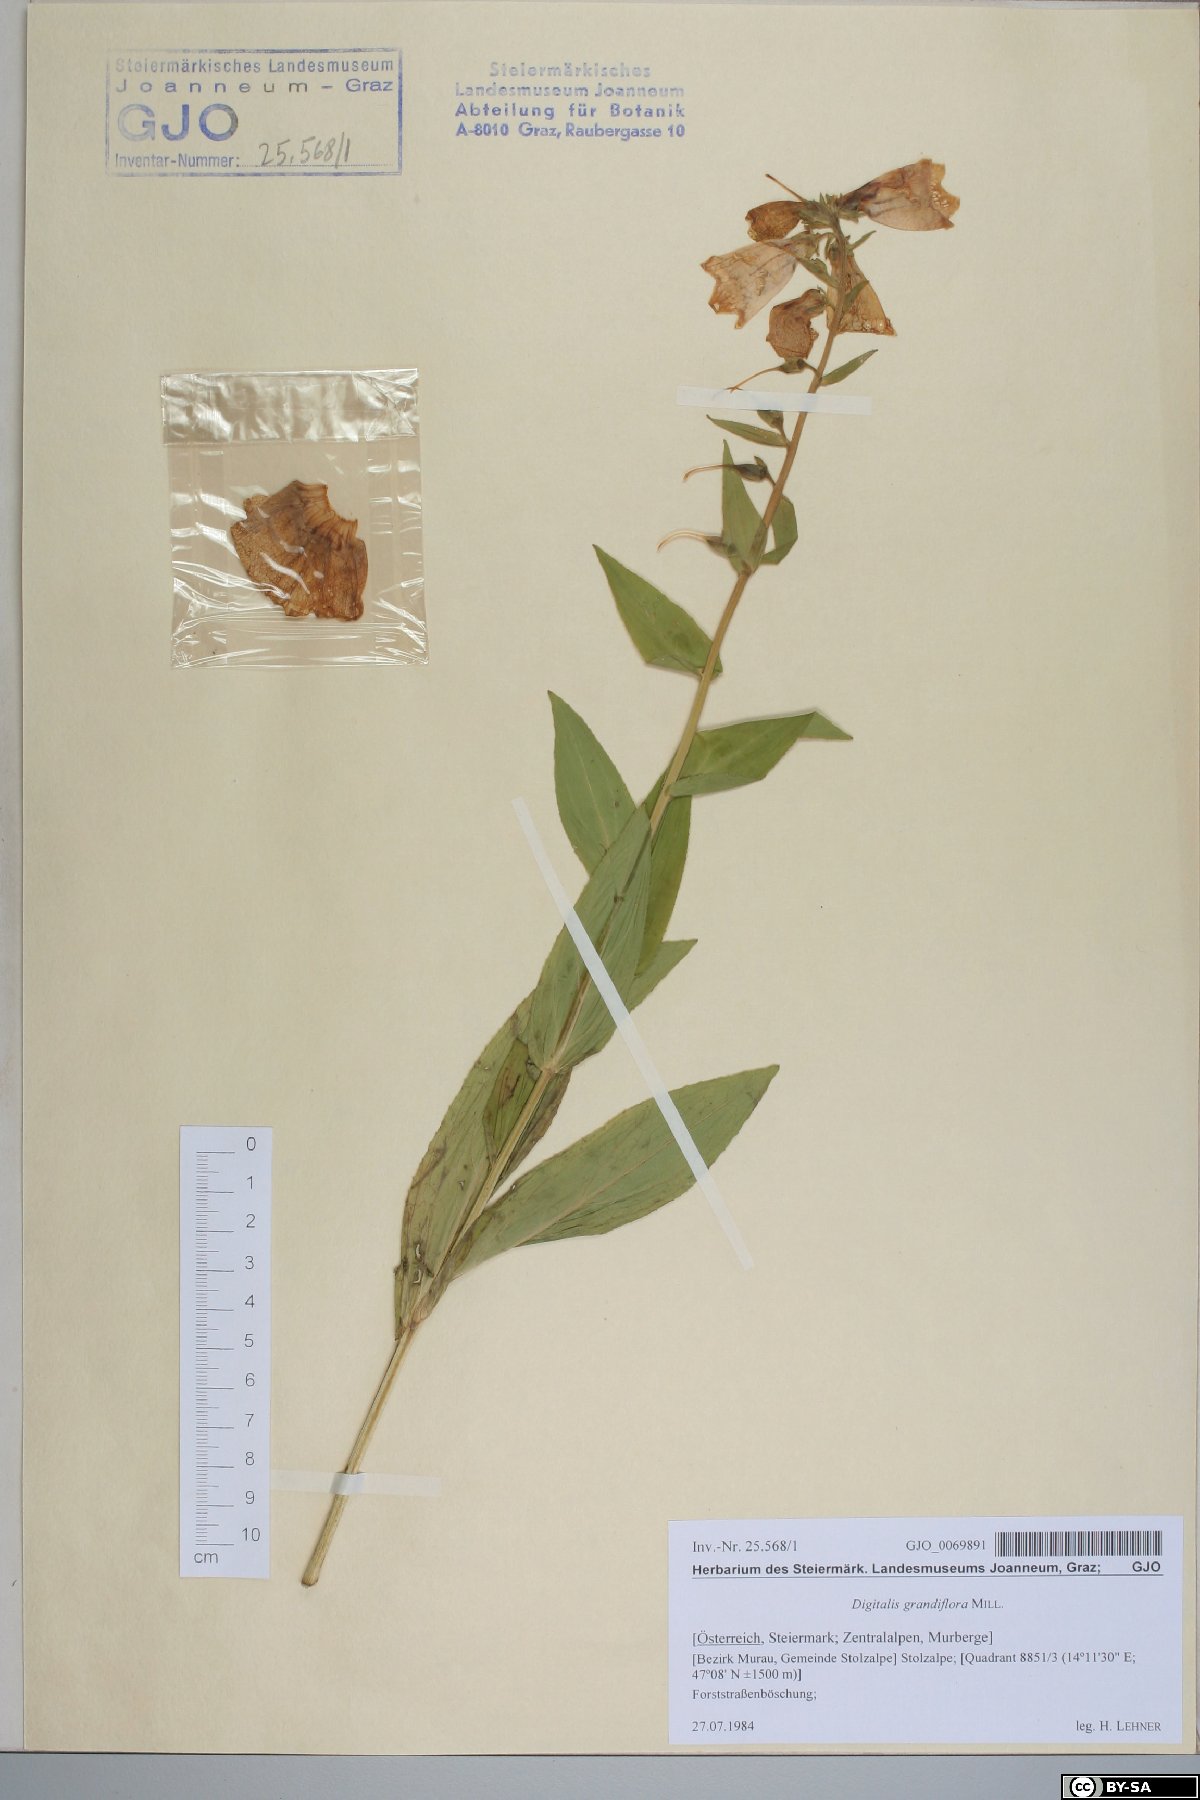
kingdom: Plantae
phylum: Tracheophyta
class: Magnoliopsida
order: Lamiales
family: Plantaginaceae
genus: Digitalis
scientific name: Digitalis grandiflora
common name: Yellow foxglove
